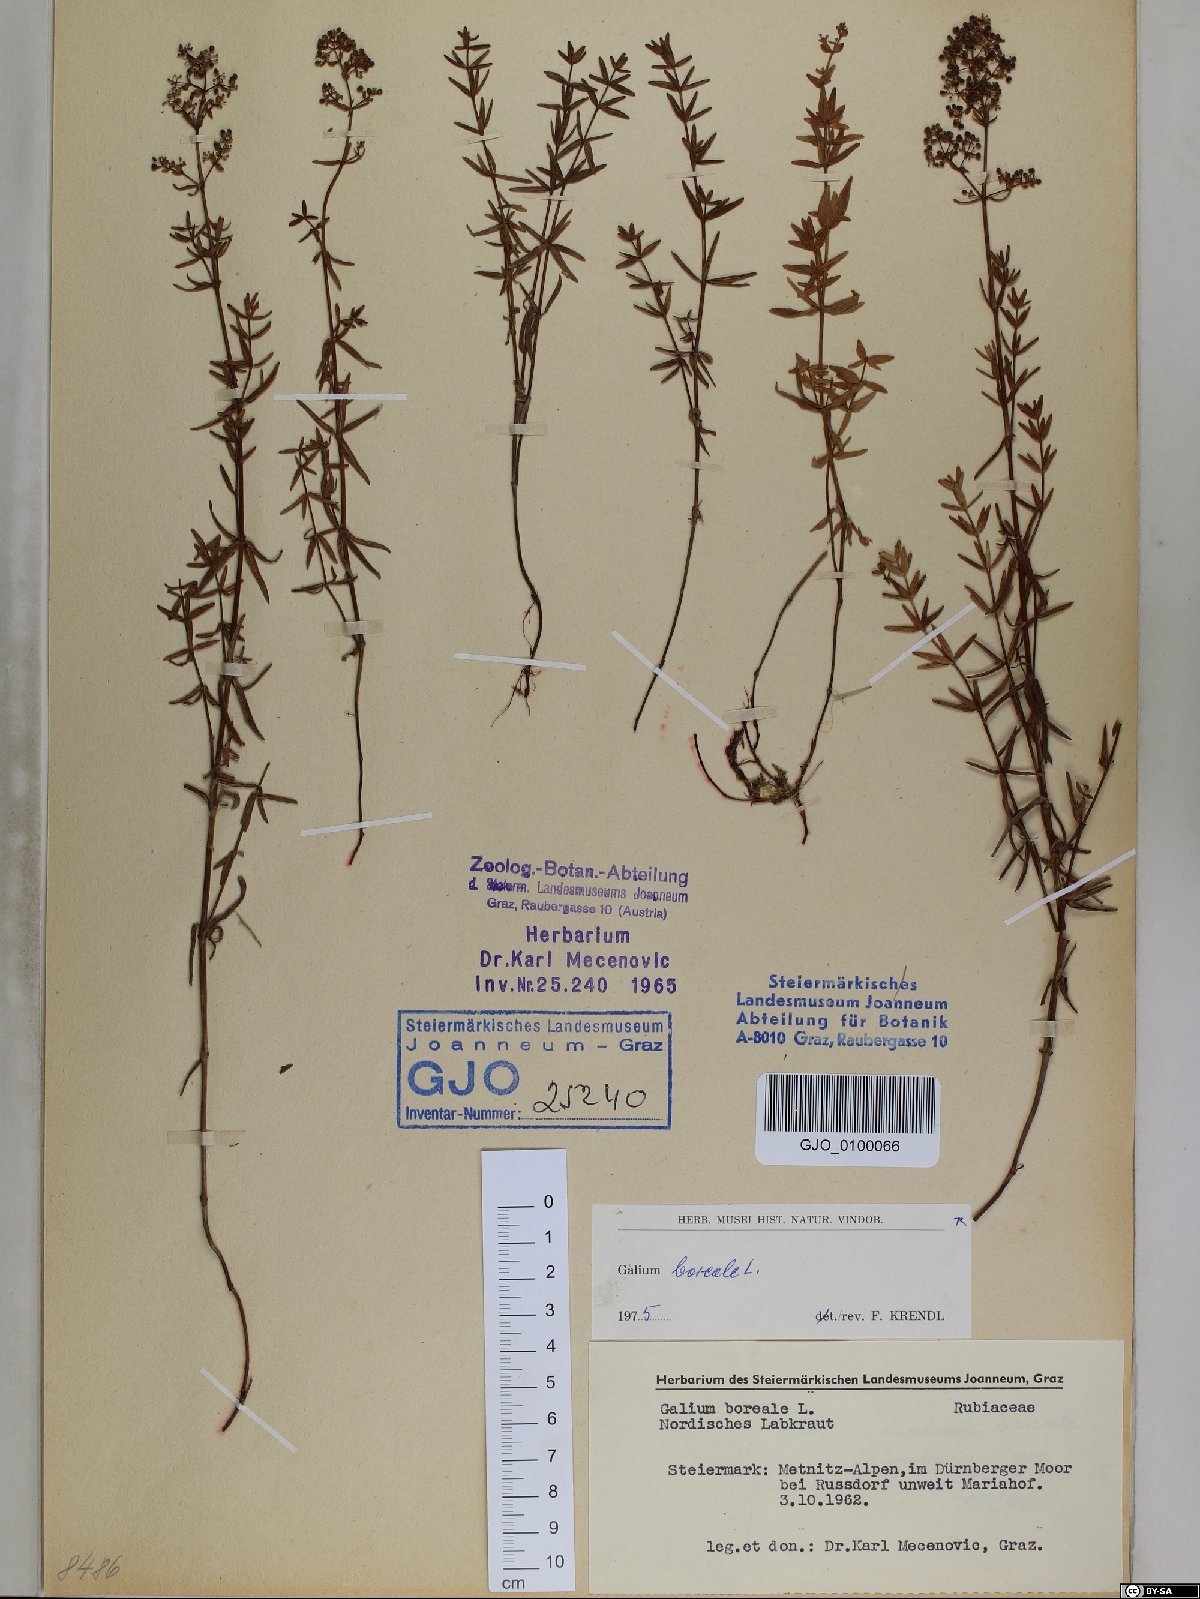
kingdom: Plantae
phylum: Tracheophyta
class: Magnoliopsida
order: Gentianales
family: Rubiaceae
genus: Galium
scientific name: Galium boreale
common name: Northern bedstraw
